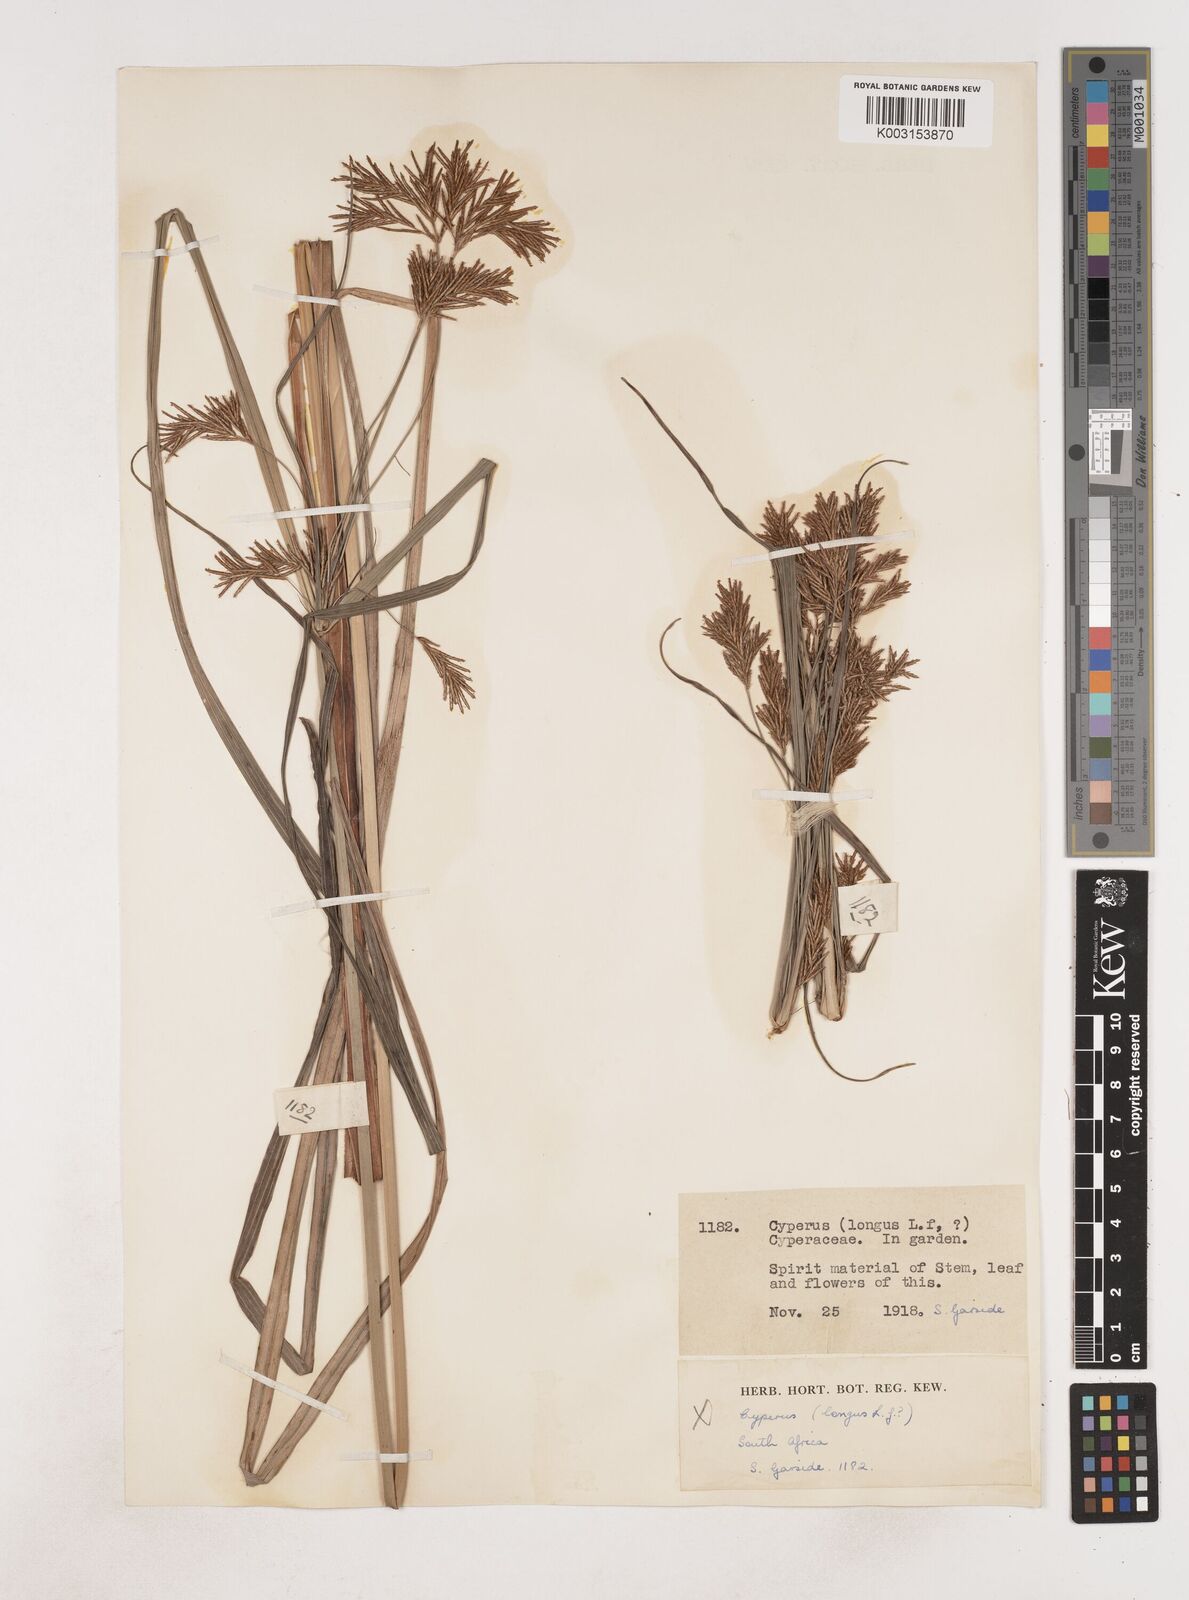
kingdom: Plantae
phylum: Tracheophyta
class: Liliopsida
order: Poales
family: Cyperaceae
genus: Cyperus
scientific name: Cyperus
